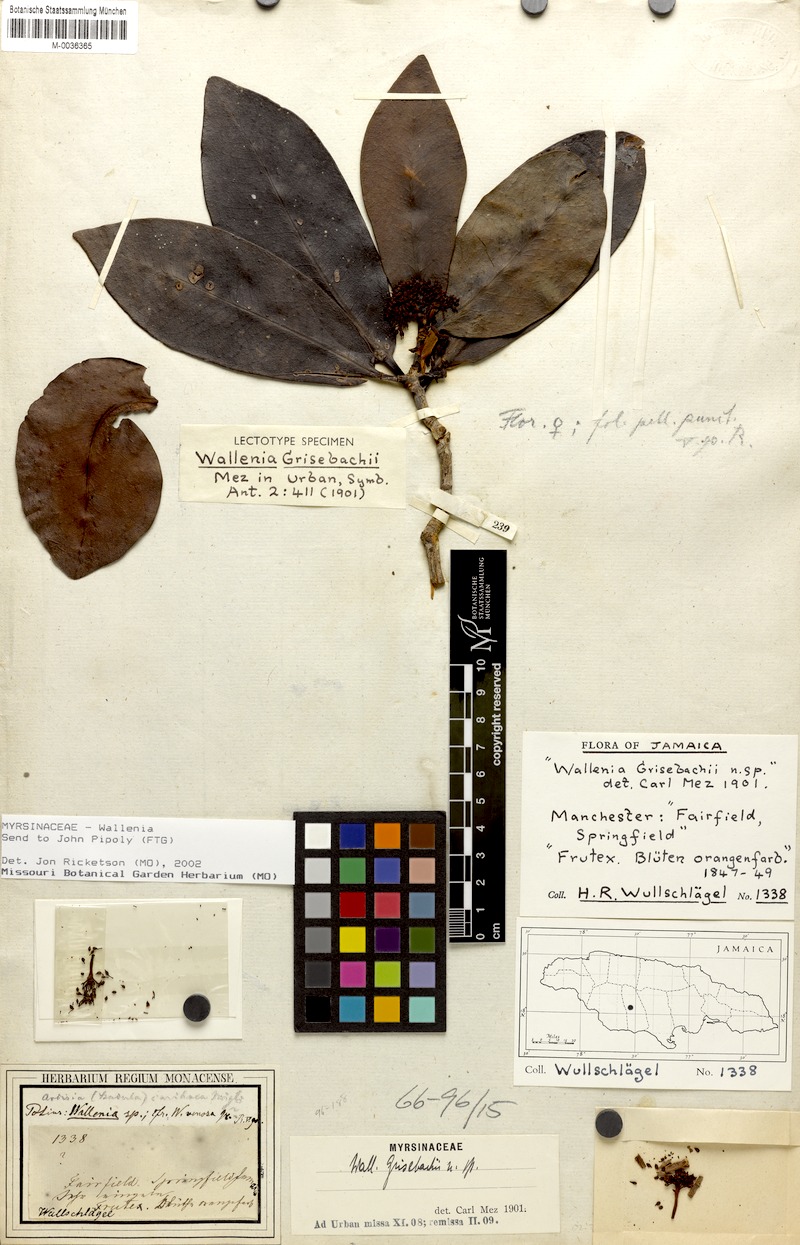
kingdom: Plantae
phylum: Tracheophyta
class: Magnoliopsida
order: Ericales
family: Primulaceae
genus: Wallenia
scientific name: Wallenia elliptica
